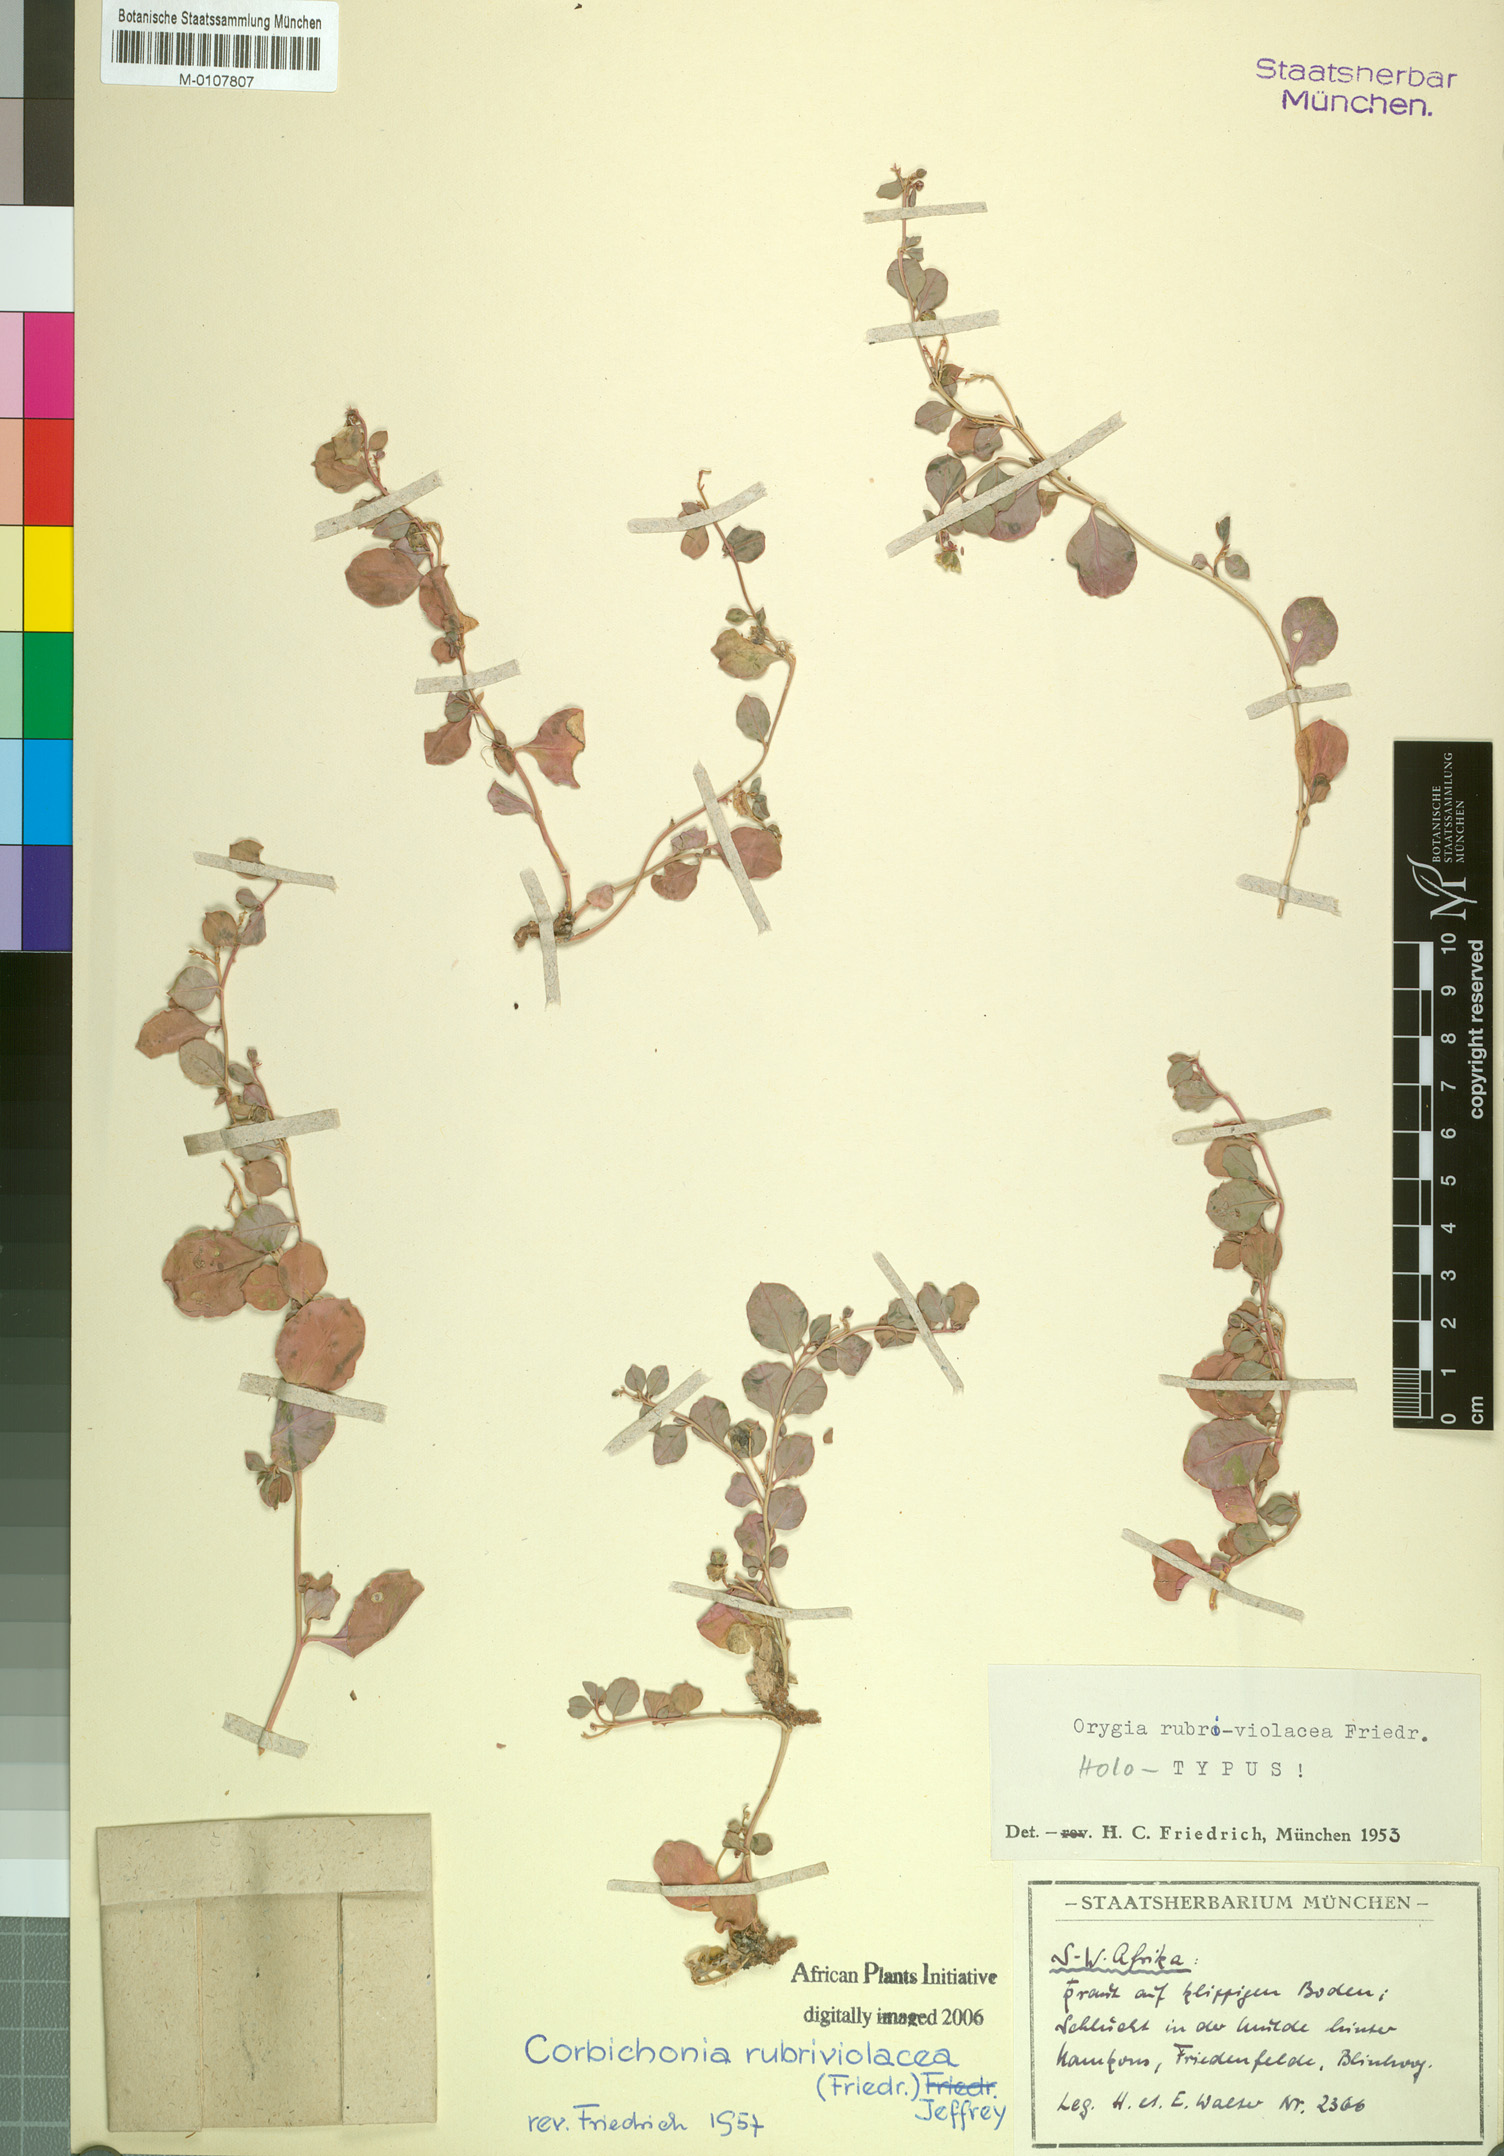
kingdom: Plantae
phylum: Tracheophyta
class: Magnoliopsida
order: Caryophyllales
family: Corbichoniaceae
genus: Corbichonia
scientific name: Corbichonia rubriviolacea
